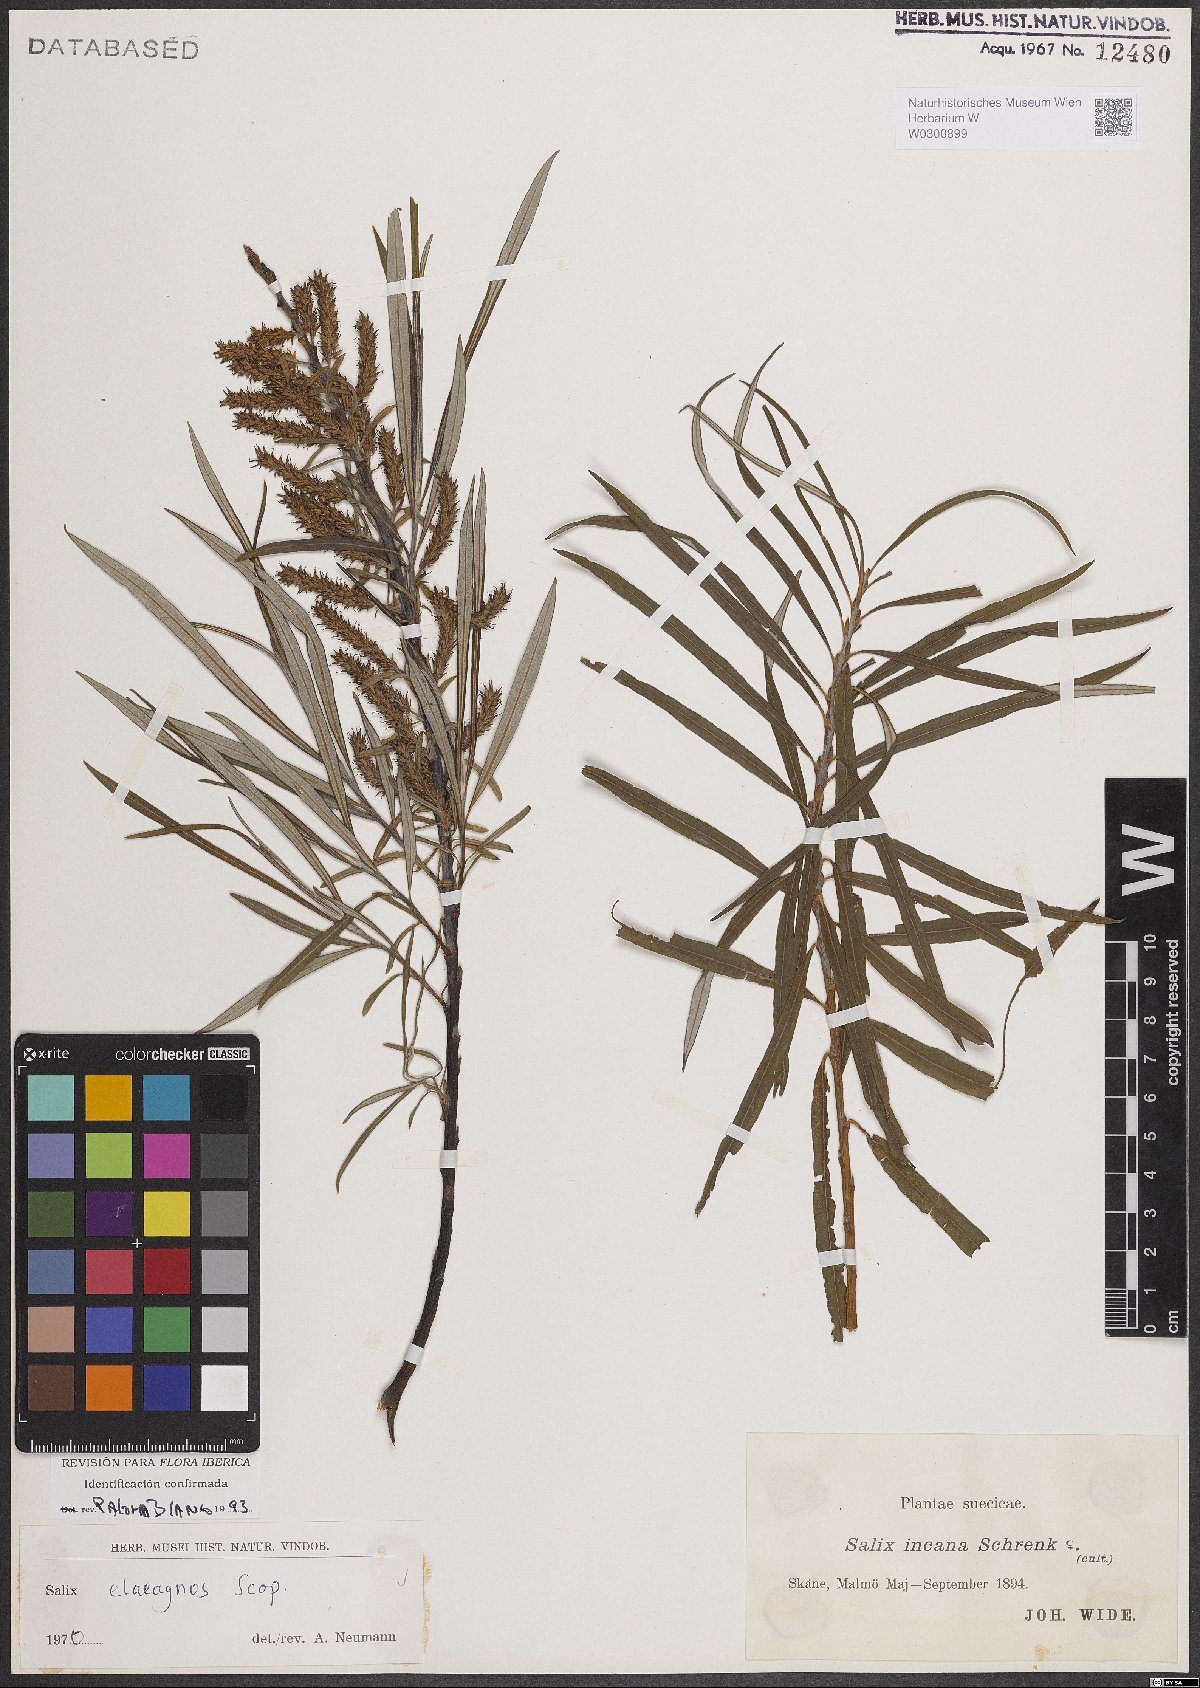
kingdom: Plantae
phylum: Tracheophyta
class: Magnoliopsida
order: Malpighiales
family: Salicaceae
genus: Salix
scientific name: Salix eleagnos
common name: Elaeagnus willow
